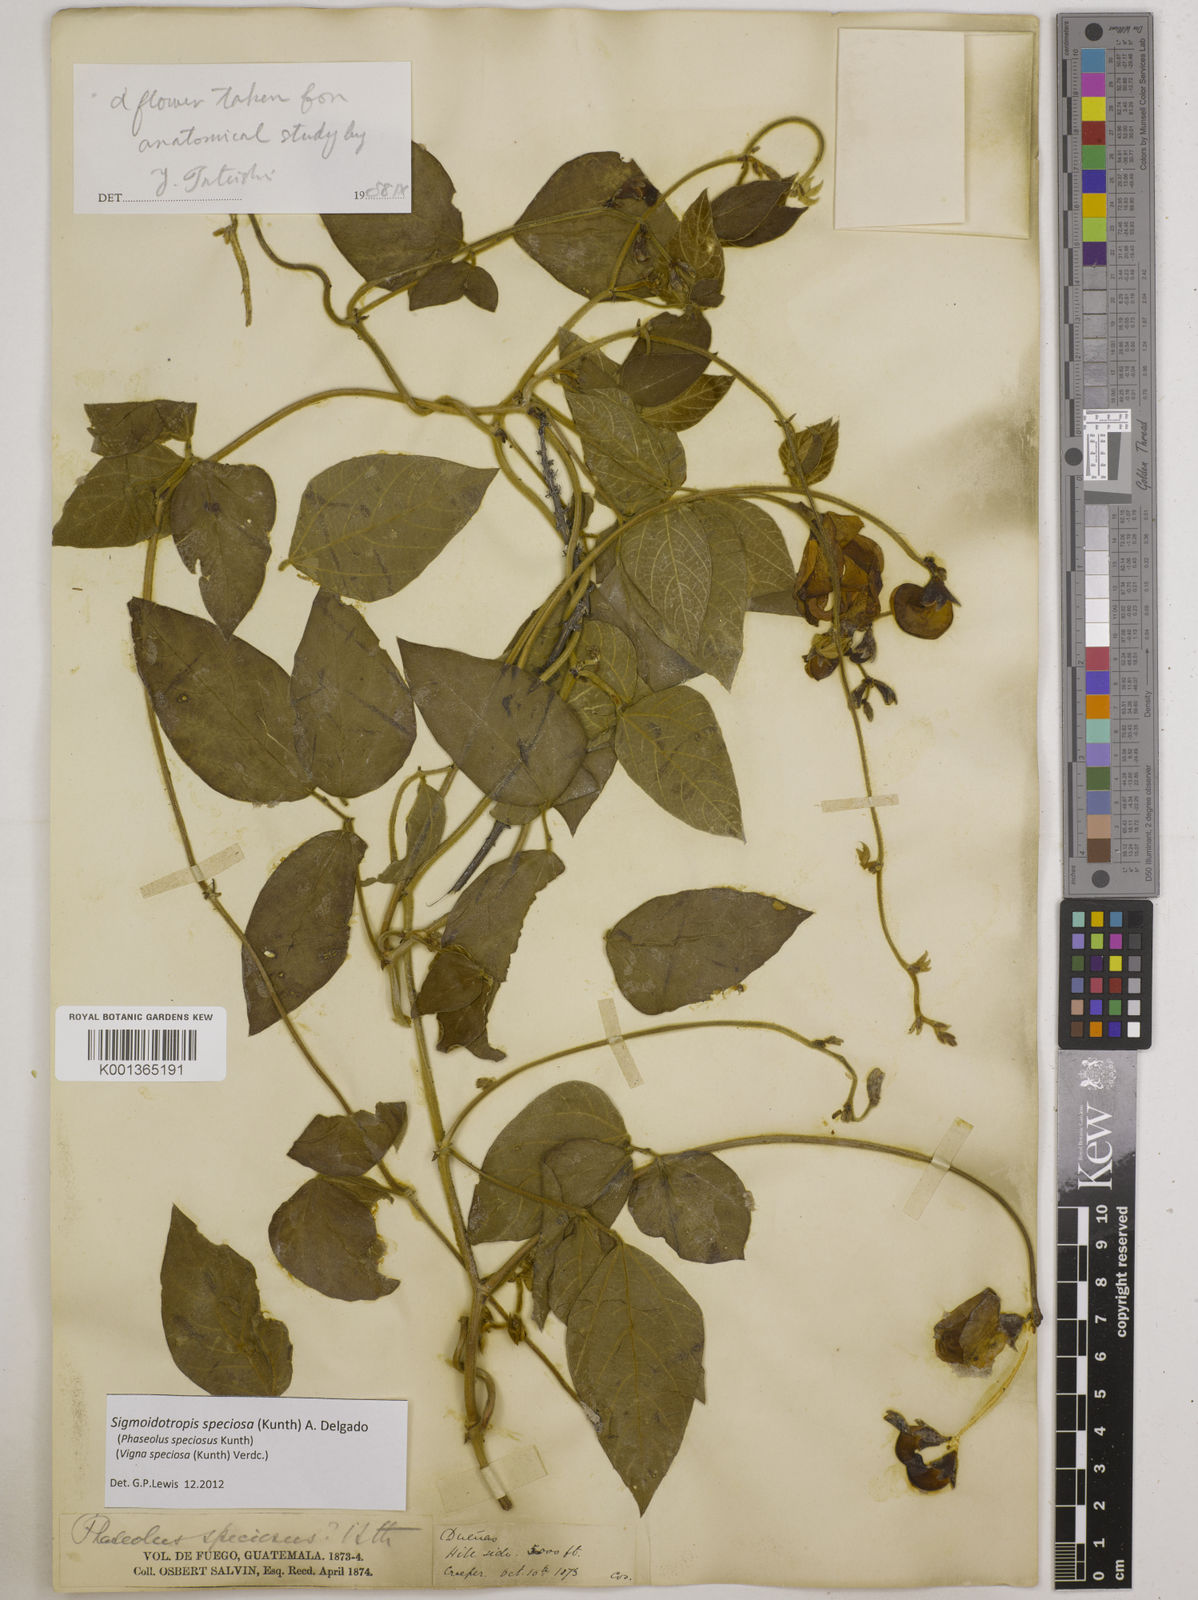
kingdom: Plantae
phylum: Tracheophyta
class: Magnoliopsida
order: Fabales
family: Fabaceae
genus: Sigmoidotropis
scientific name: Sigmoidotropis speciosa
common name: Snail flower
